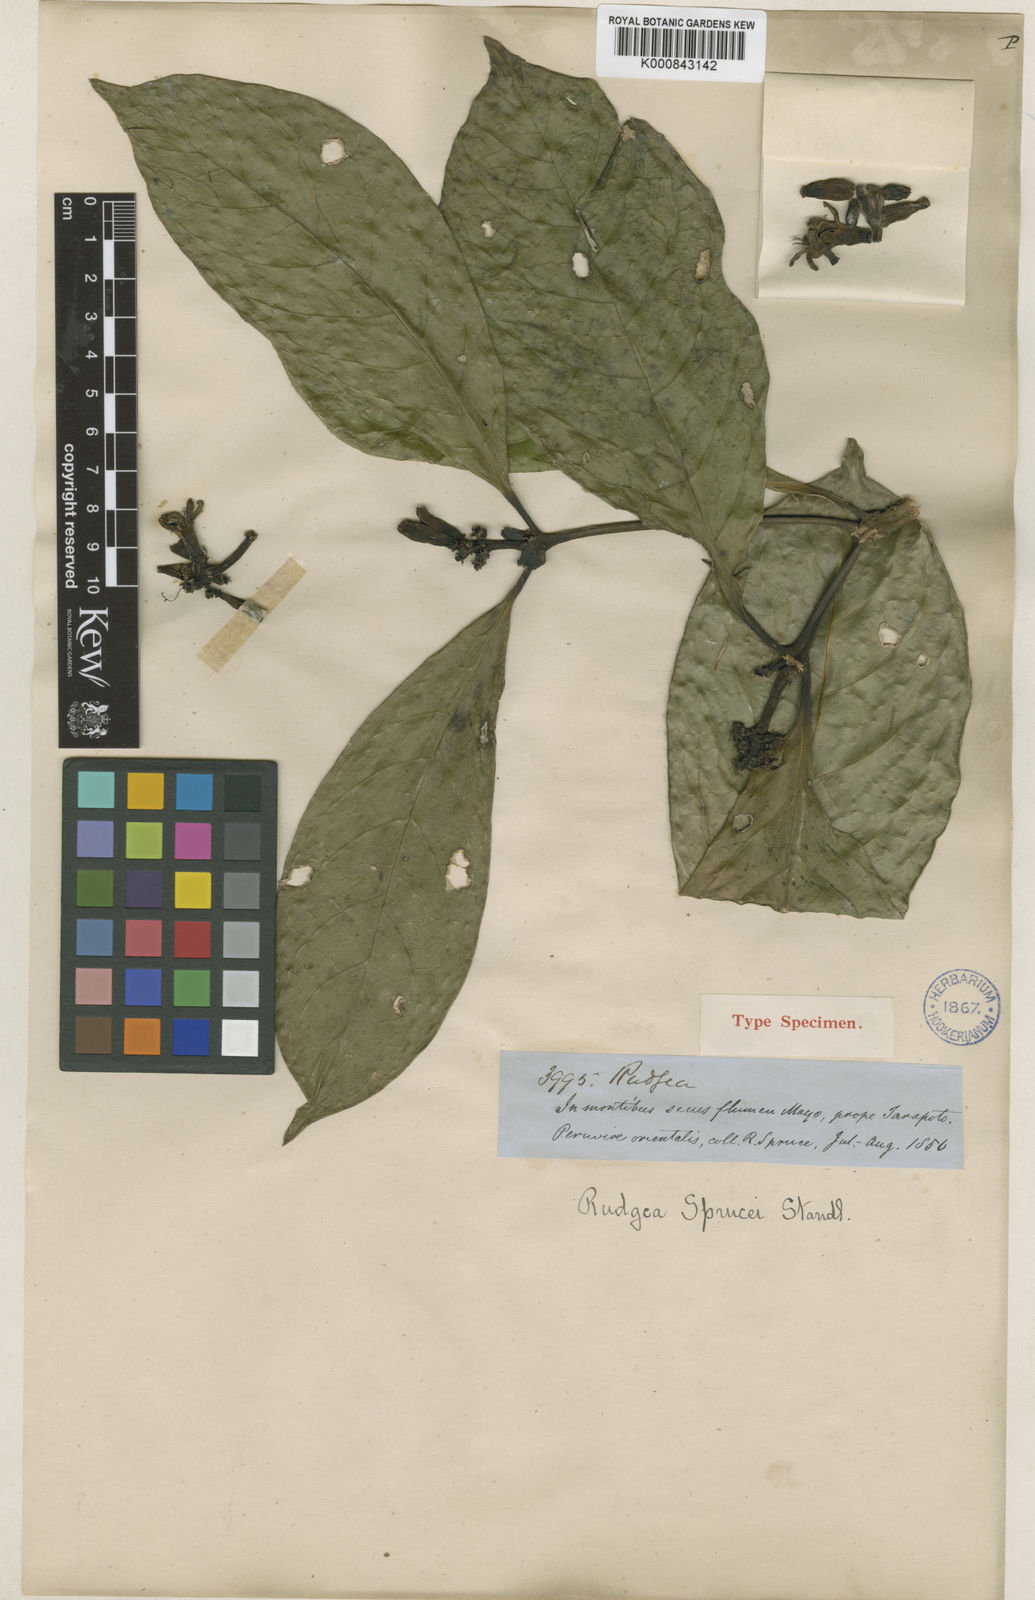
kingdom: Plantae
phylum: Tracheophyta
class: Magnoliopsida
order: Gentianales
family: Rubiaceae
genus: Rudgea
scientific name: Rudgea sprucei
